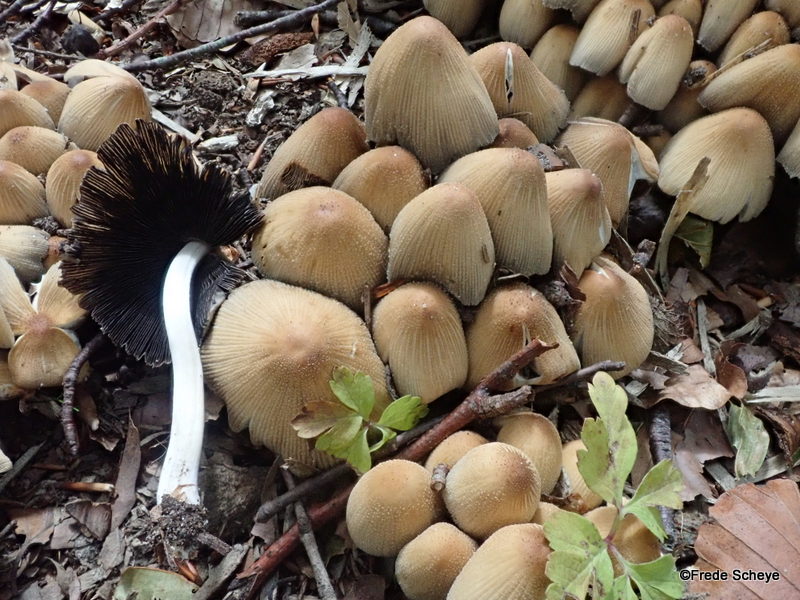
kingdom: Fungi
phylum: Basidiomycota
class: Agaricomycetes
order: Agaricales
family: Psathyrellaceae
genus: Coprinellus
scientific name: Coprinellus micaceus
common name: glimmer-blækhat
